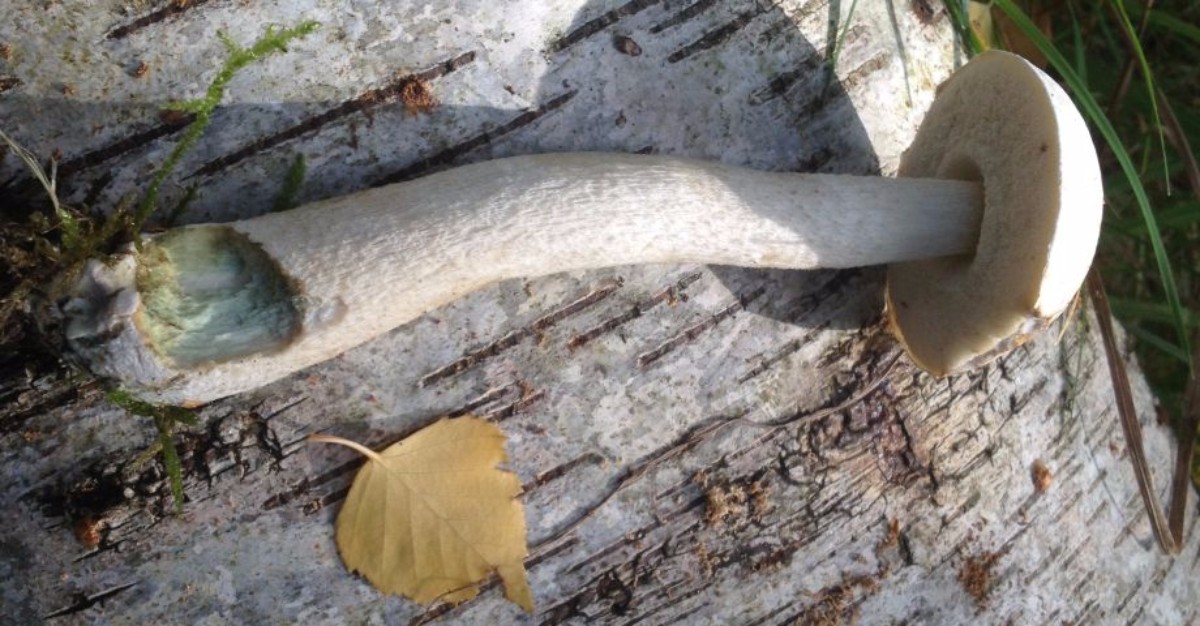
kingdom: Fungi
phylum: Basidiomycota
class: Agaricomycetes
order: Boletales
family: Boletaceae
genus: Leccinum
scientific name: Leccinum
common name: skælrørhat
